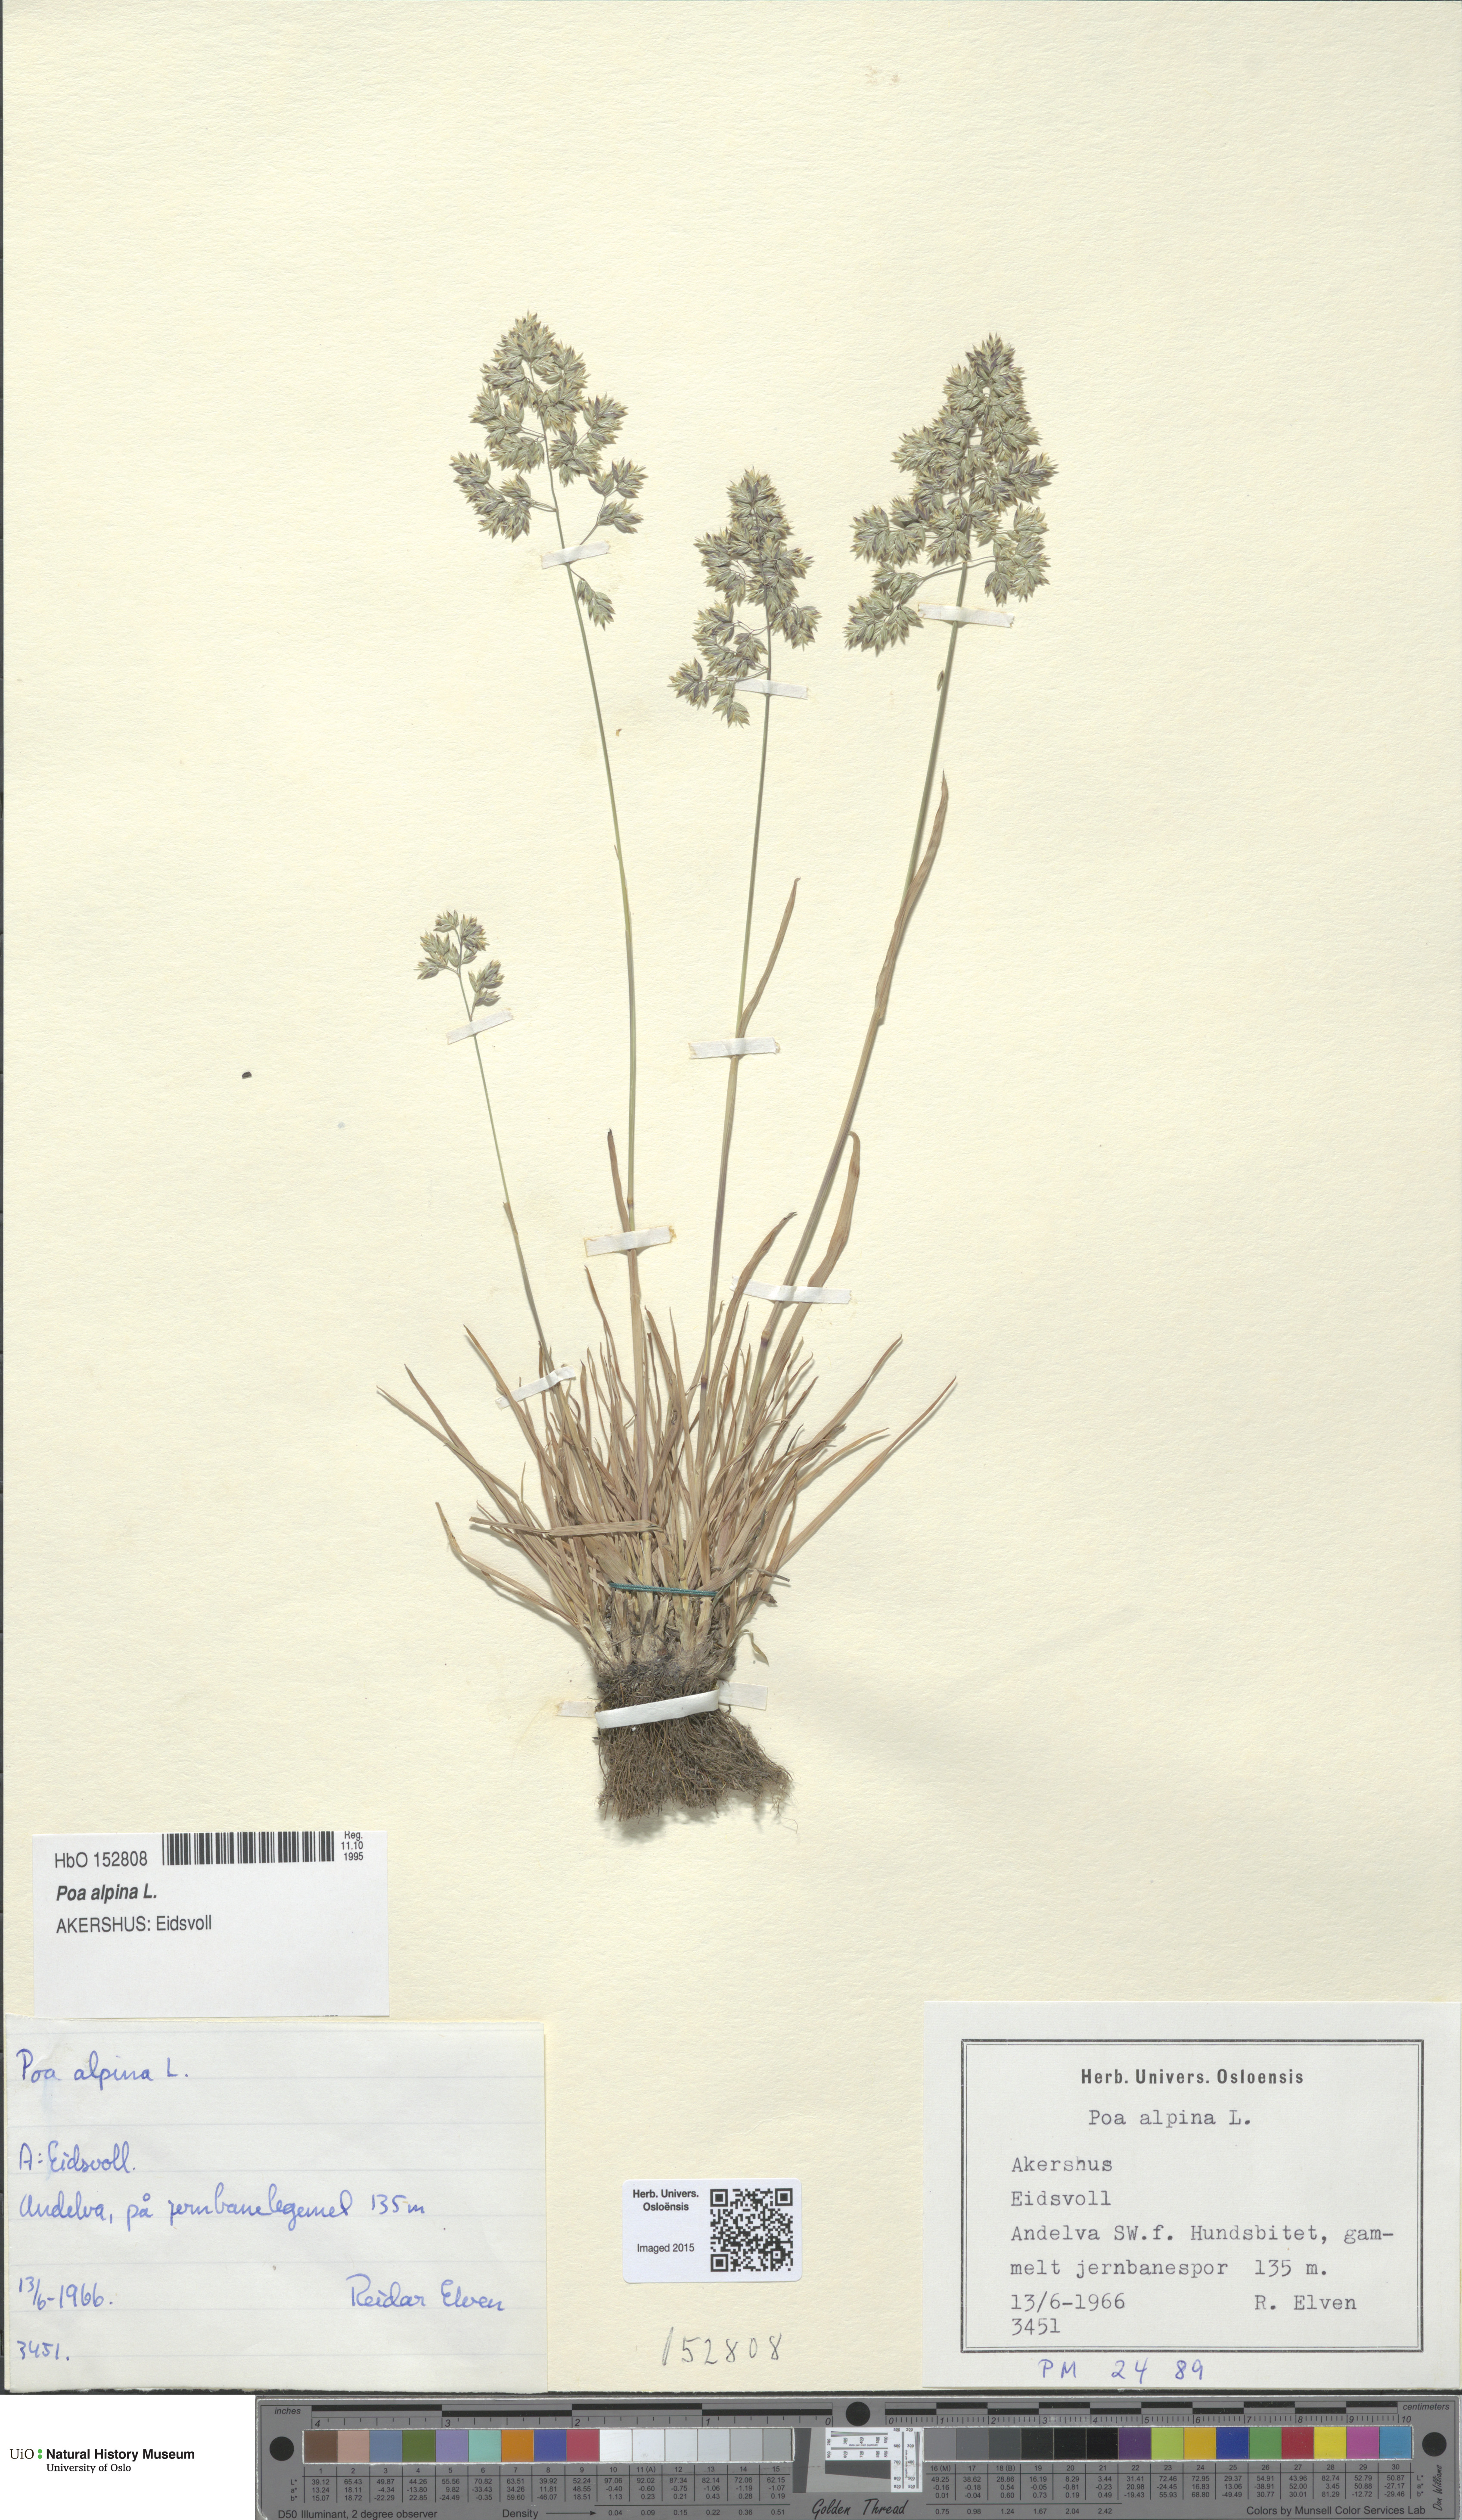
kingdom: Plantae
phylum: Tracheophyta
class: Liliopsida
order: Poales
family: Poaceae
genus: Poa
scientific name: Poa alpina
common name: Alpine bluegrass
